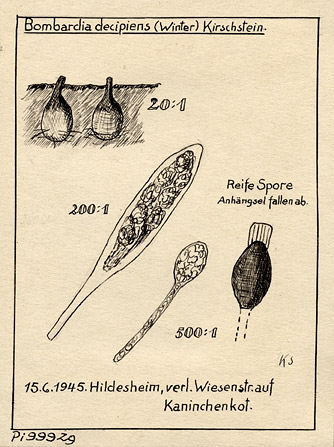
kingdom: Fungi
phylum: Ascomycota
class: Sordariomycetes
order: Sordariales
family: Naviculisporaceae
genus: Rhypophila
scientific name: Rhypophila decipiens
